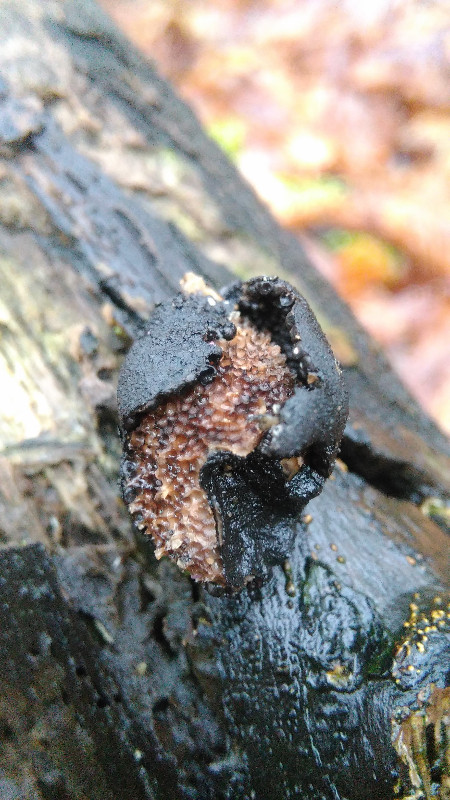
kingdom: Fungi
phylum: Ascomycota
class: Sordariomycetes
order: Xylariales
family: Xylariaceae
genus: Xylaria
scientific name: Xylaria polymorpha
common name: kølle-stødsvamp
